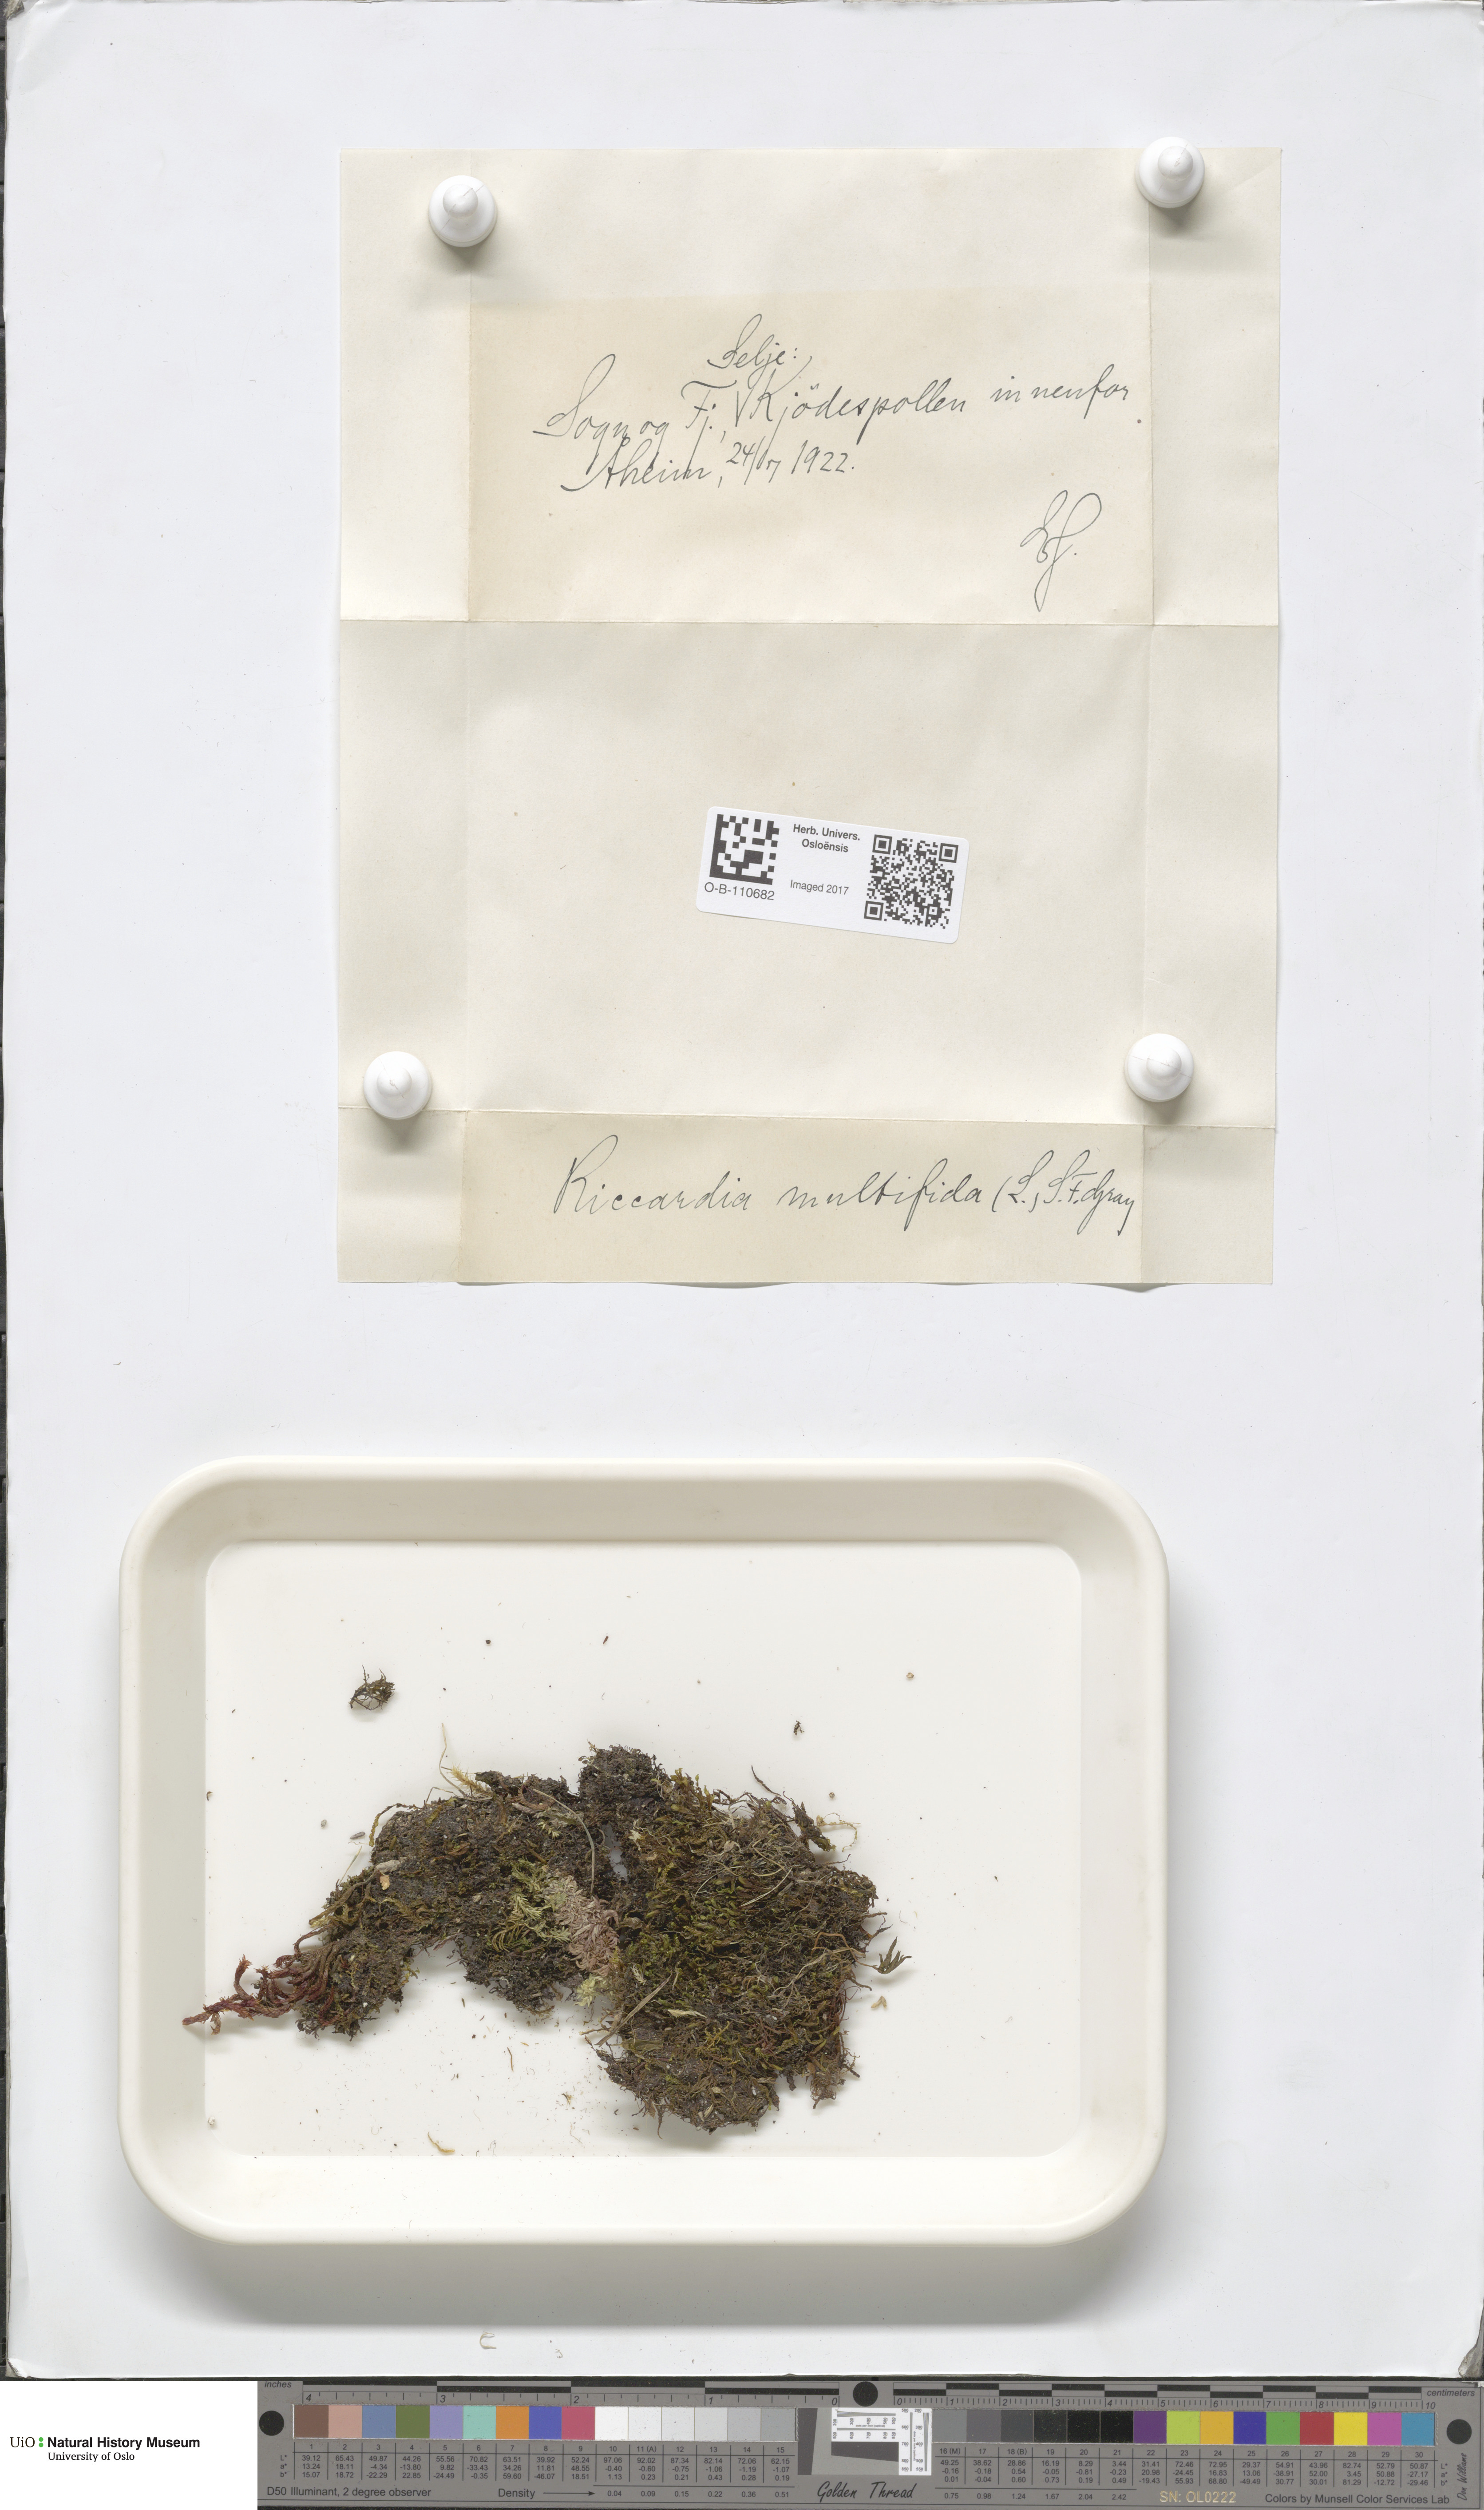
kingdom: Plantae
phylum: Marchantiophyta
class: Jungermanniopsida
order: Metzgeriales
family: Aneuraceae
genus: Riccardia
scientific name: Riccardia palmata
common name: Palmate germanderwort
